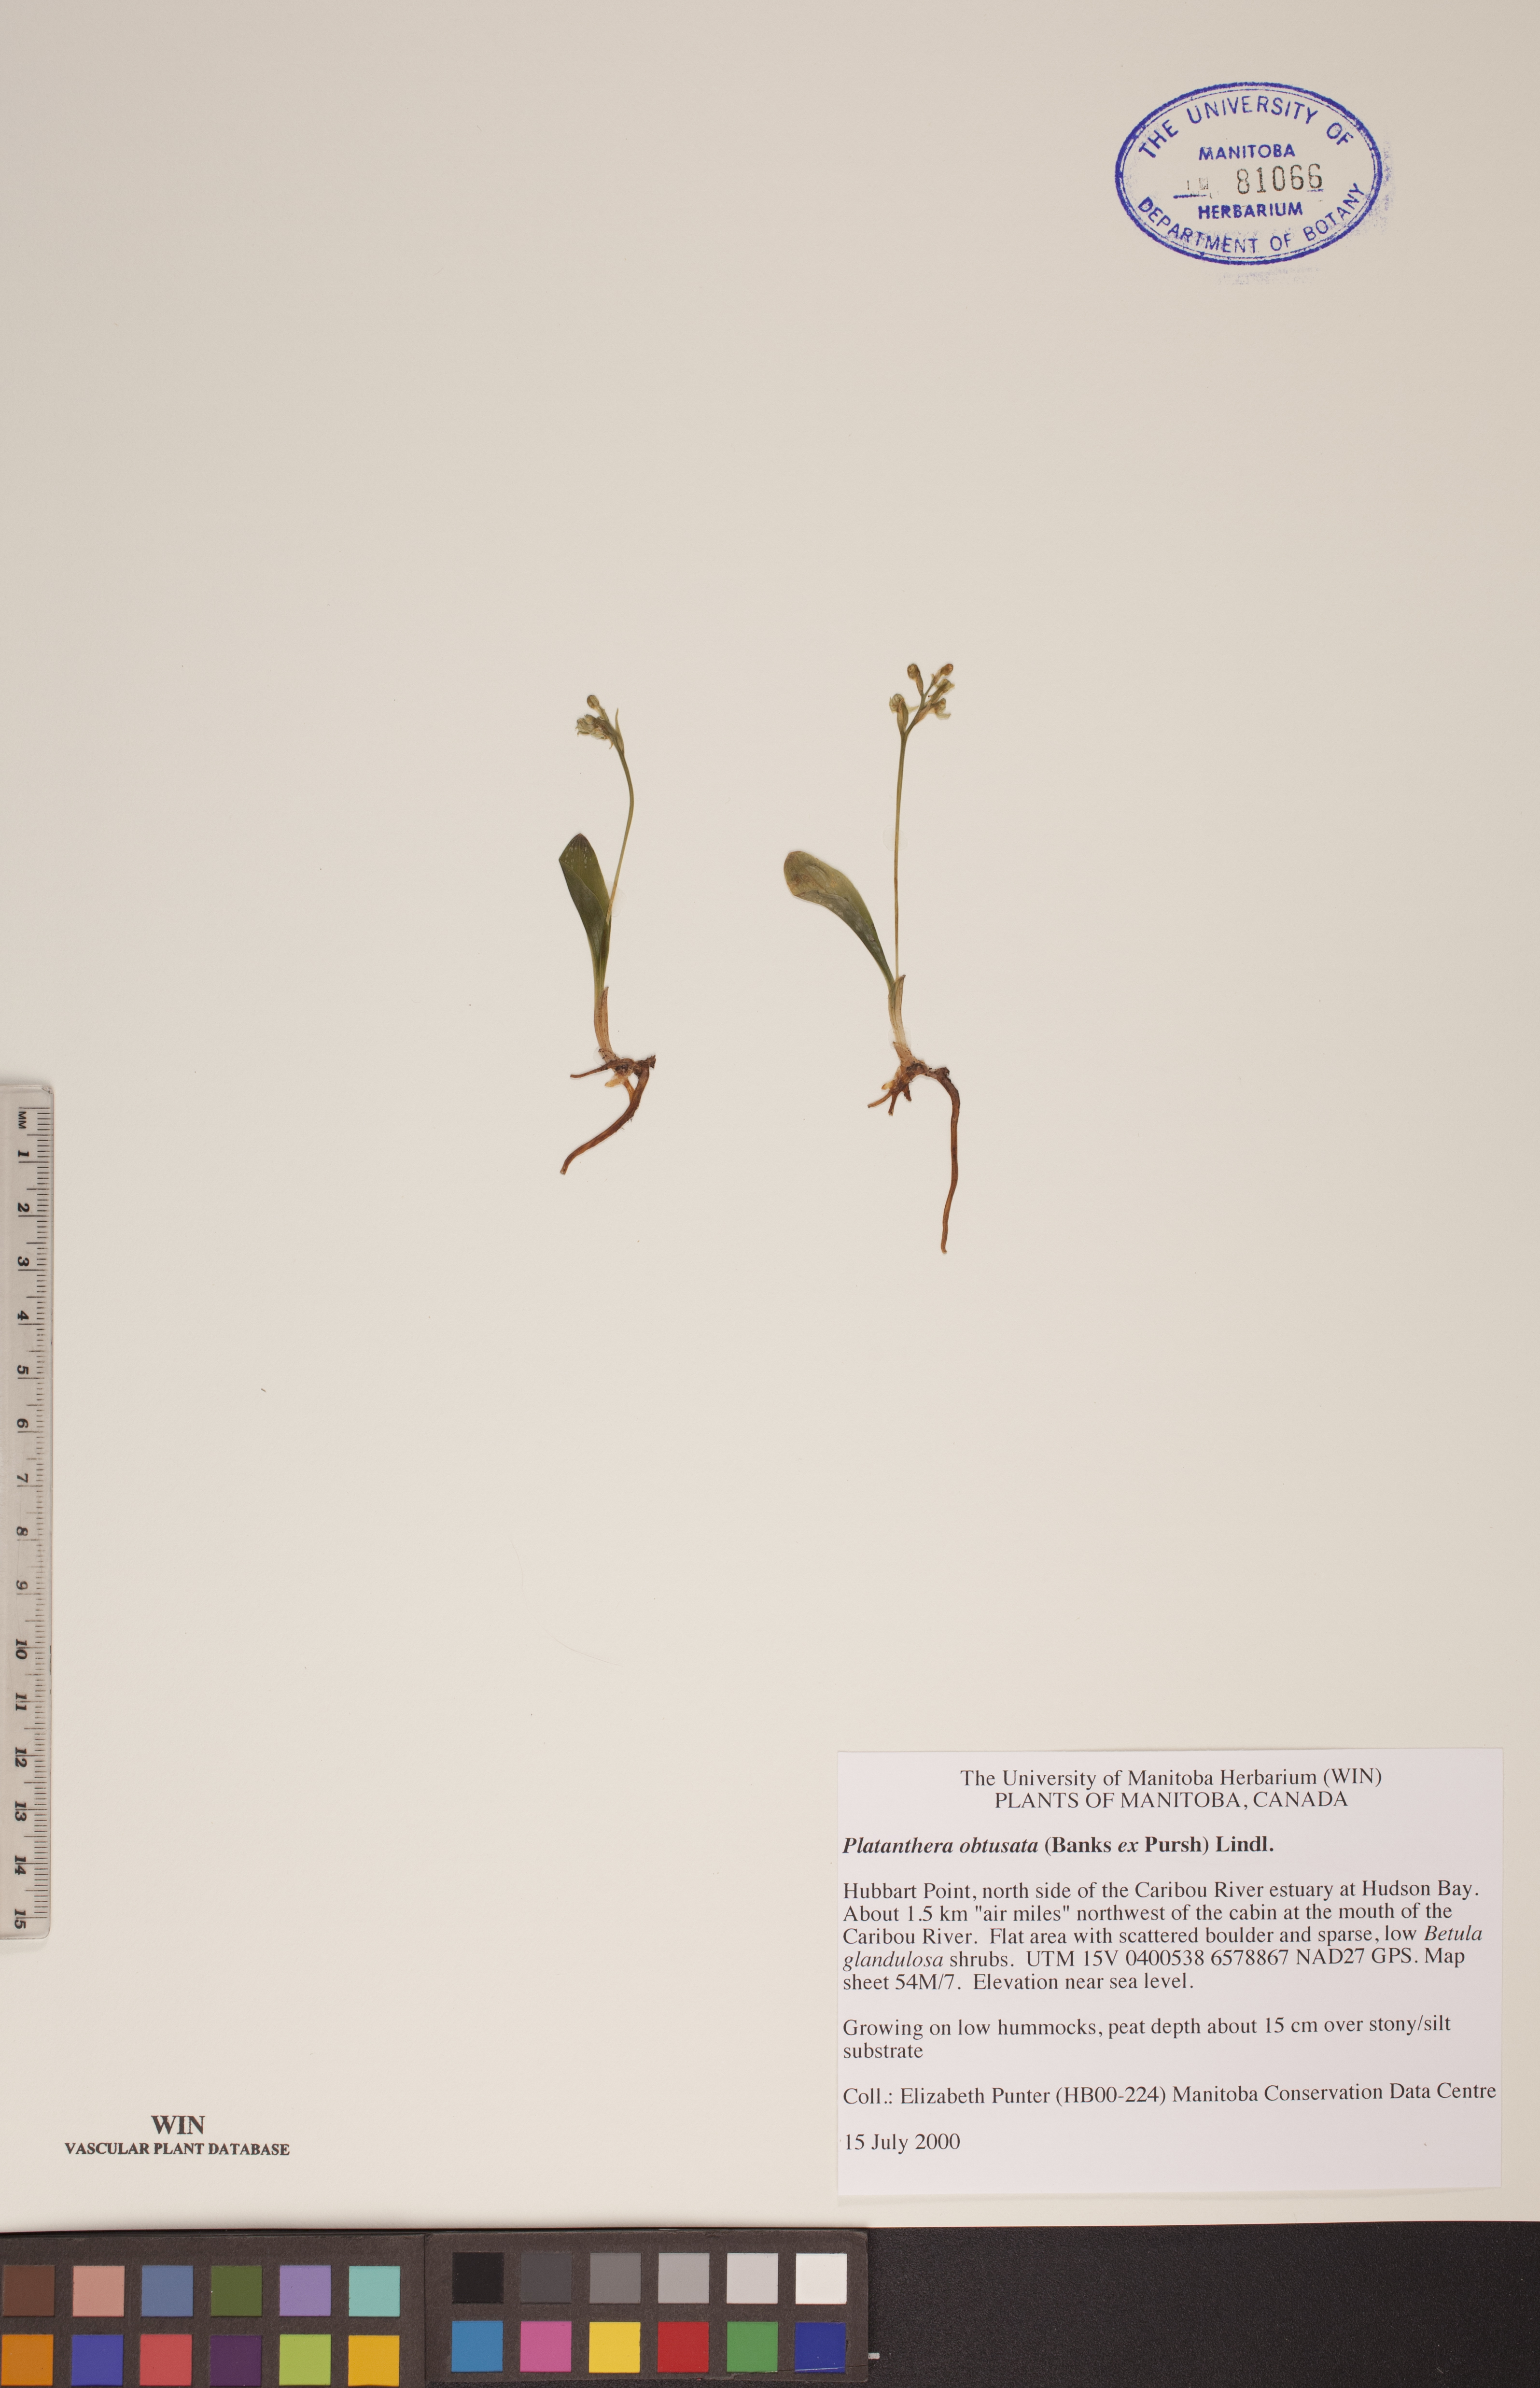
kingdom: Plantae
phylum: Tracheophyta
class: Liliopsida
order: Asparagales
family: Orchidaceae
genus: Platanthera
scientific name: Platanthera obtusata
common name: Blunt bog orchid
